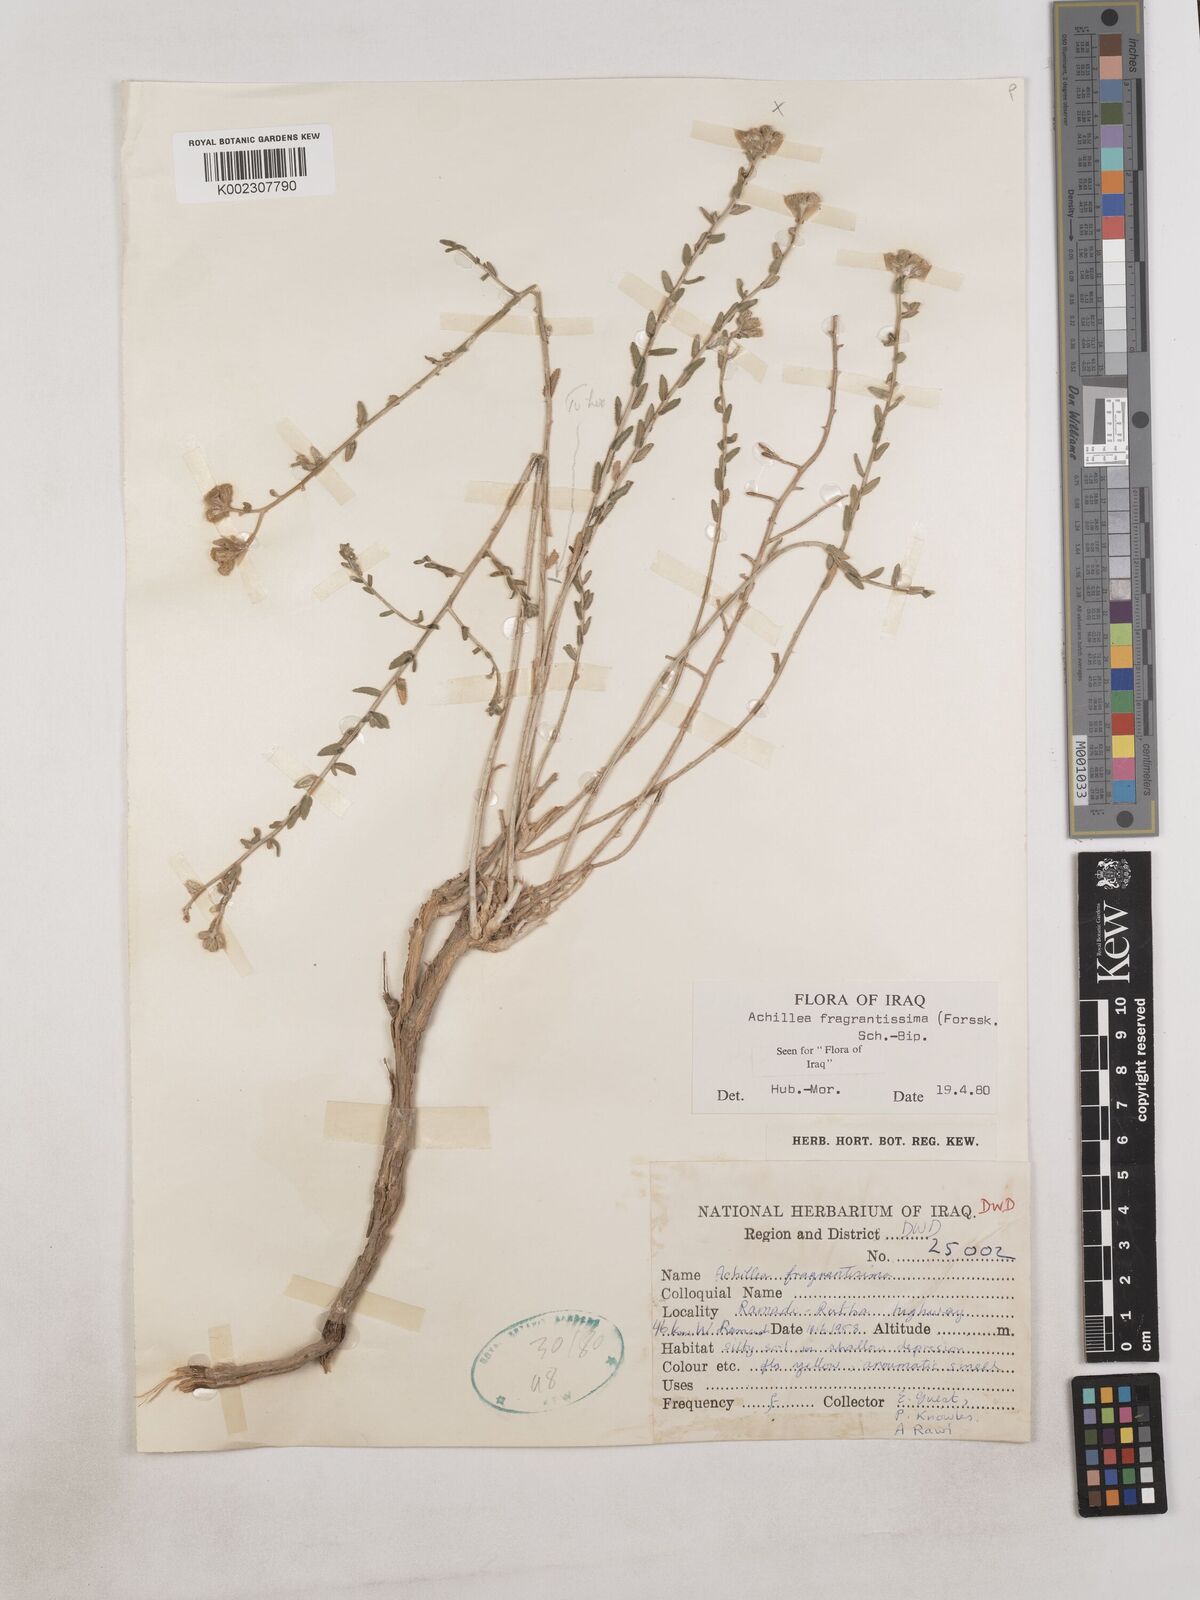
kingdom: Plantae
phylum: Tracheophyta
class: Magnoliopsida
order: Asterales
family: Asteraceae
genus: Achillea
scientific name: Achillea fragrantissima
